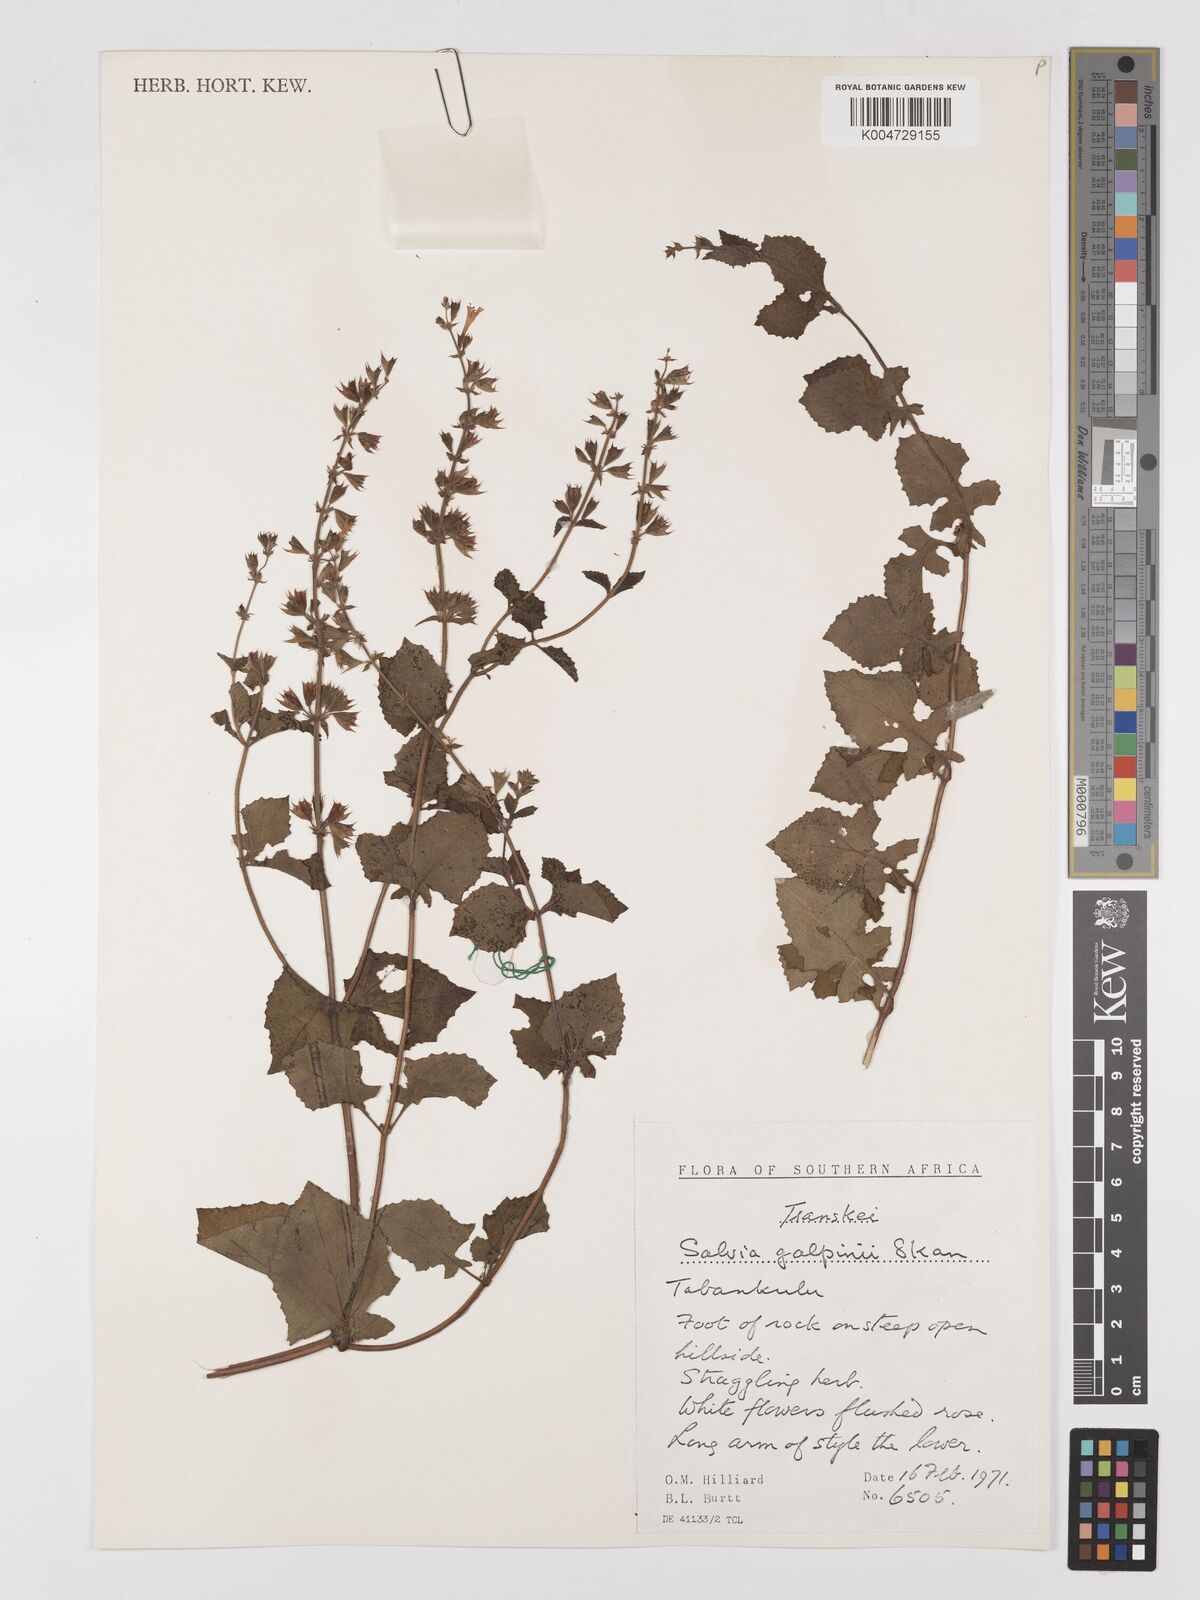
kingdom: Plantae
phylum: Tracheophyta
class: Magnoliopsida
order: Lamiales
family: Lamiaceae
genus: Salvia
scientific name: Salvia aurita
